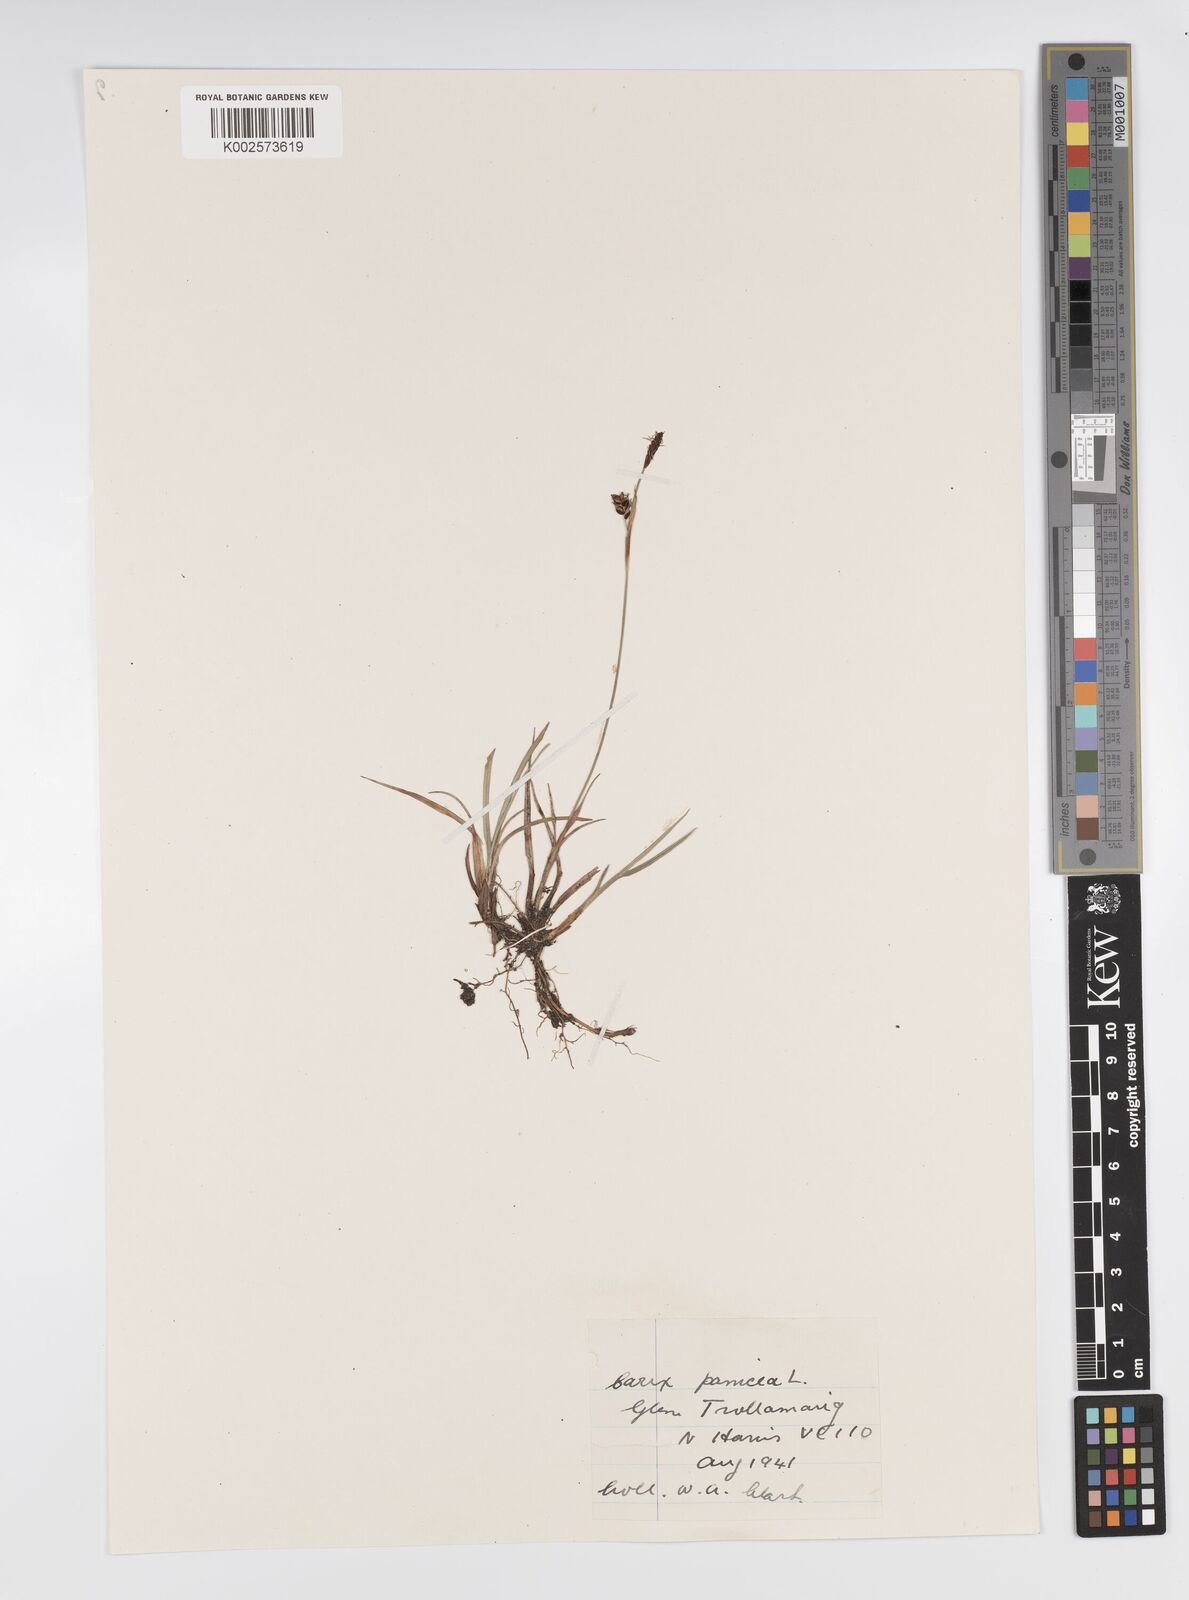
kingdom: Plantae
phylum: Tracheophyta
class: Liliopsida
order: Poales
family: Cyperaceae
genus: Carex
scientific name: Carex panicea
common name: Carnation sedge
